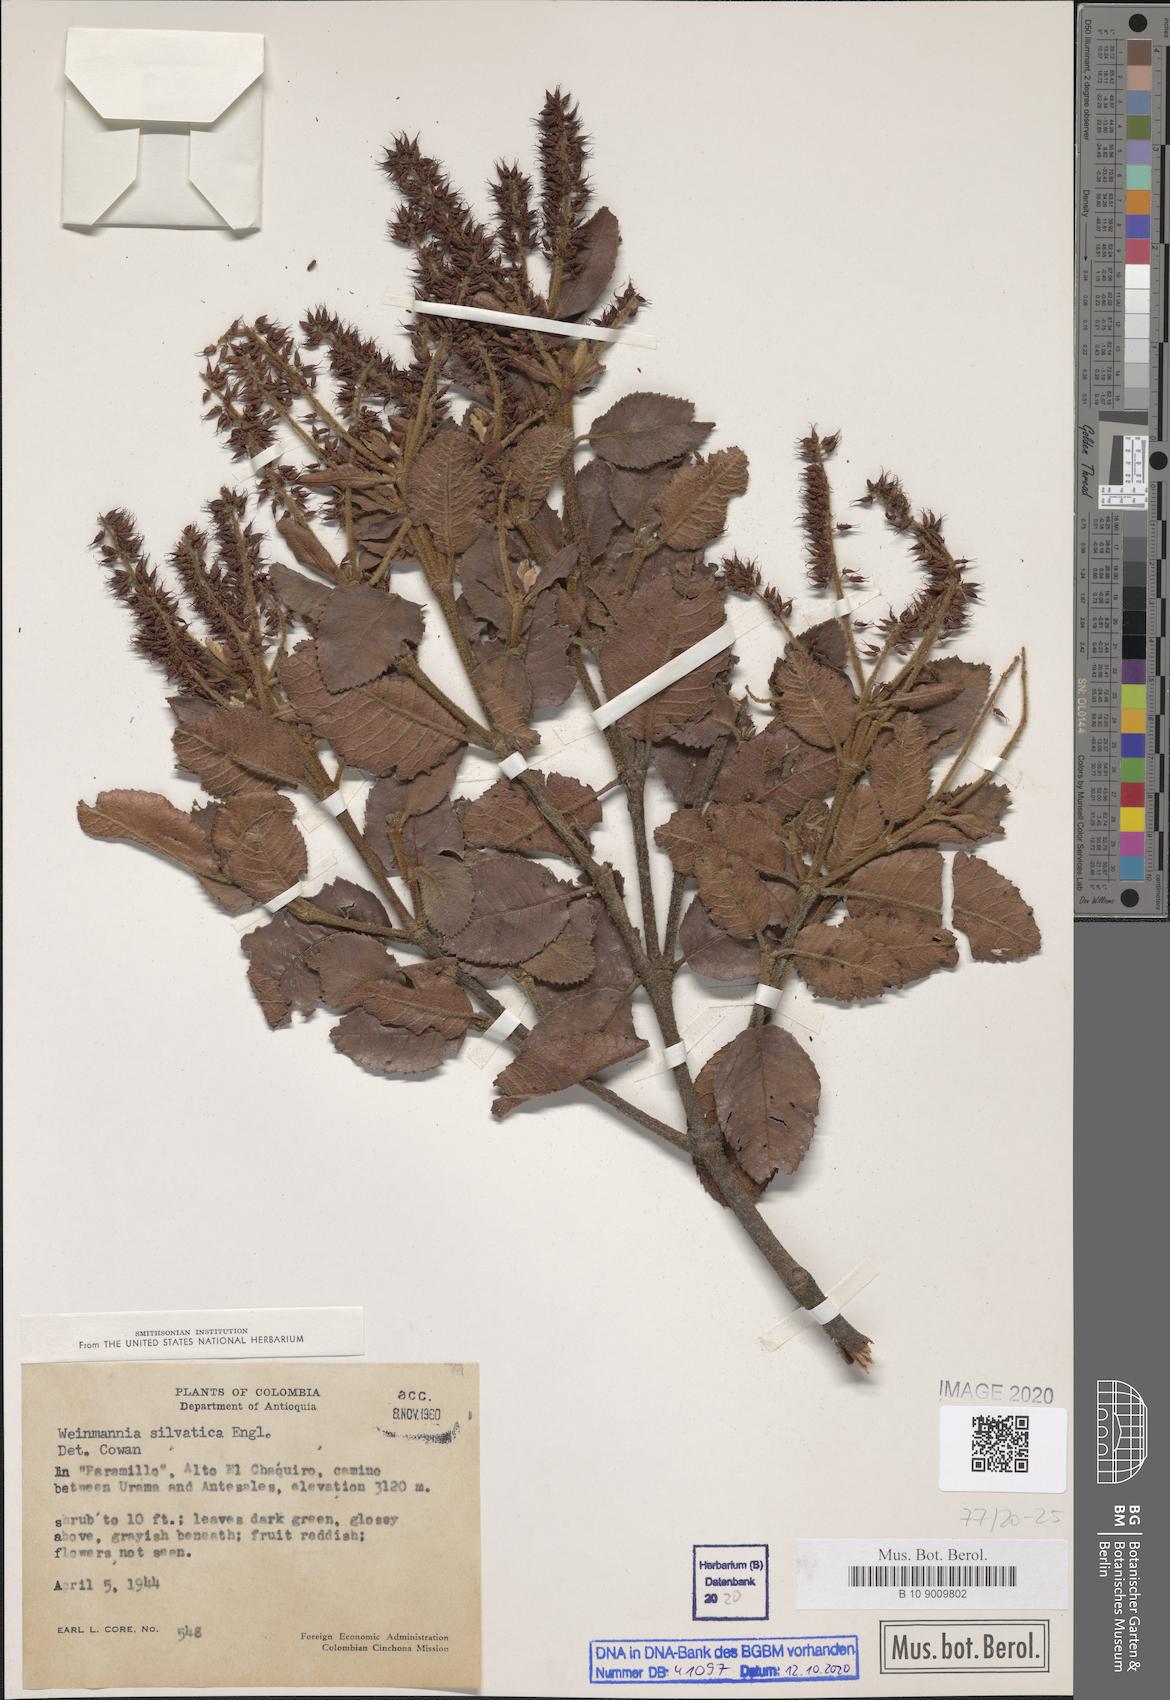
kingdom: Plantae
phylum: Tracheophyta
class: Magnoliopsida
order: Oxalidales
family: Cunoniaceae
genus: Weinmannia
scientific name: Weinmannia auriculata
